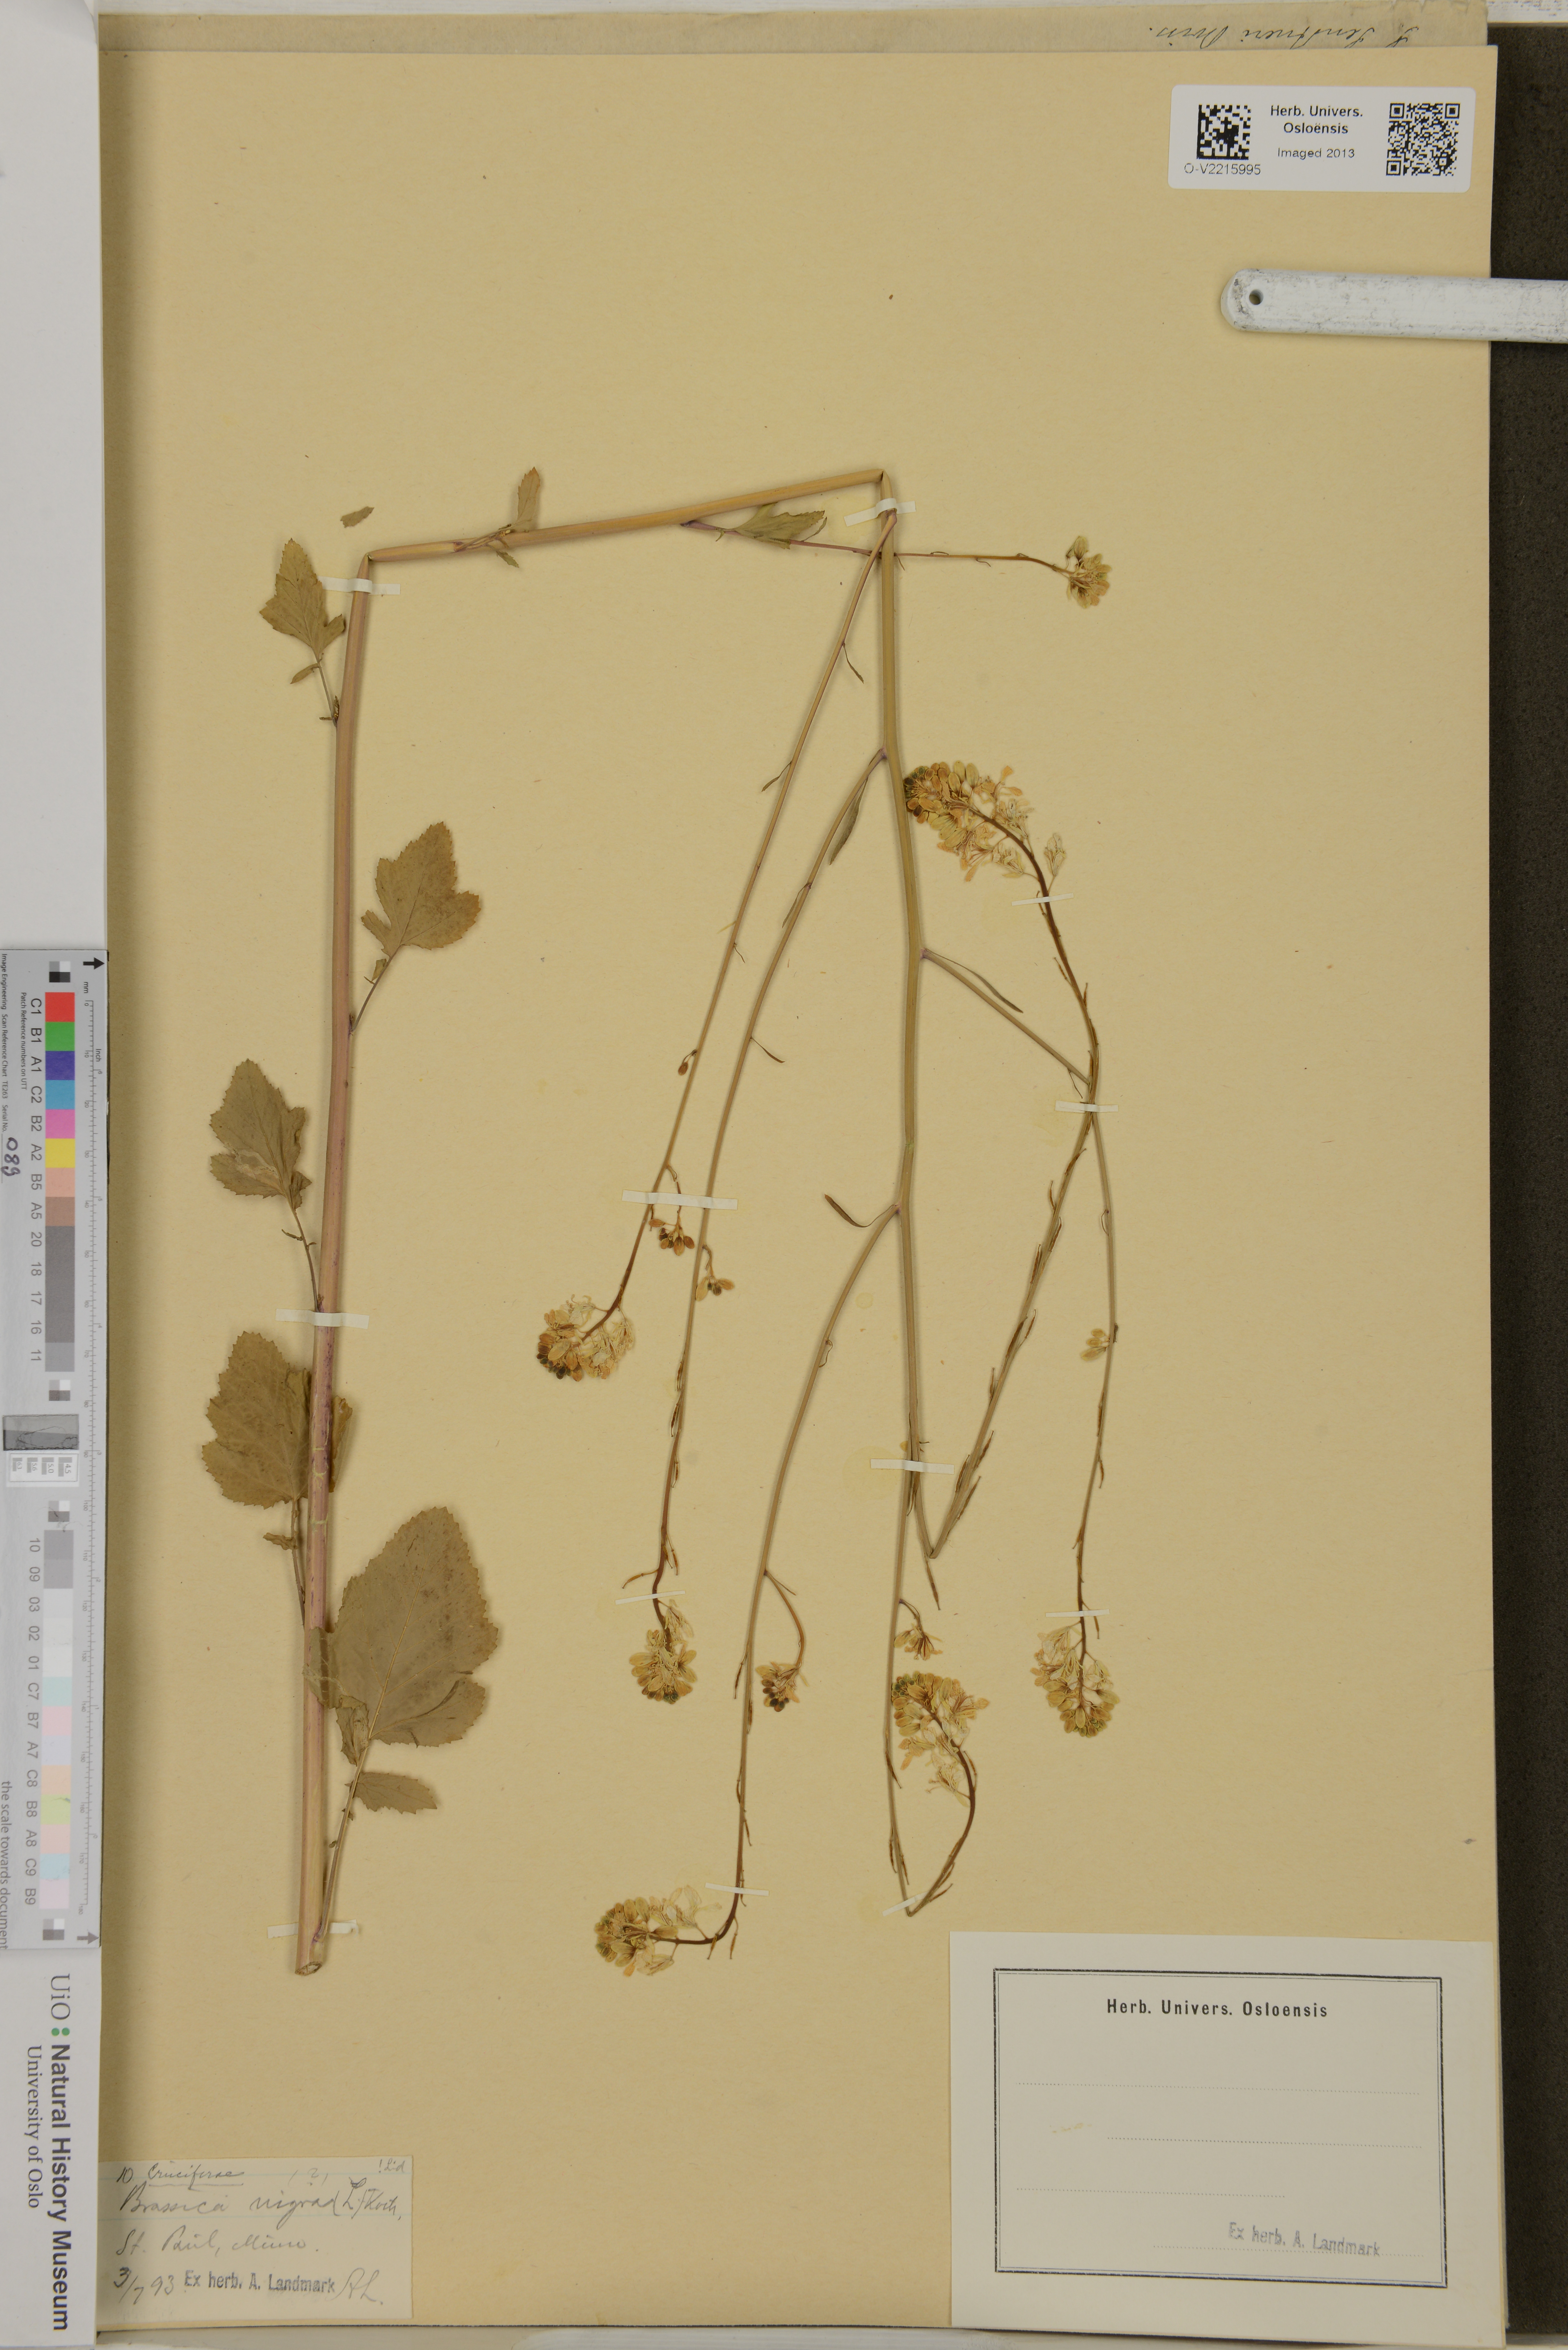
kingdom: Plantae
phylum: Tracheophyta
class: Magnoliopsida
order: Brassicales
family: Brassicaceae
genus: Brassica
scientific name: Brassica nigra
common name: Black mustard
